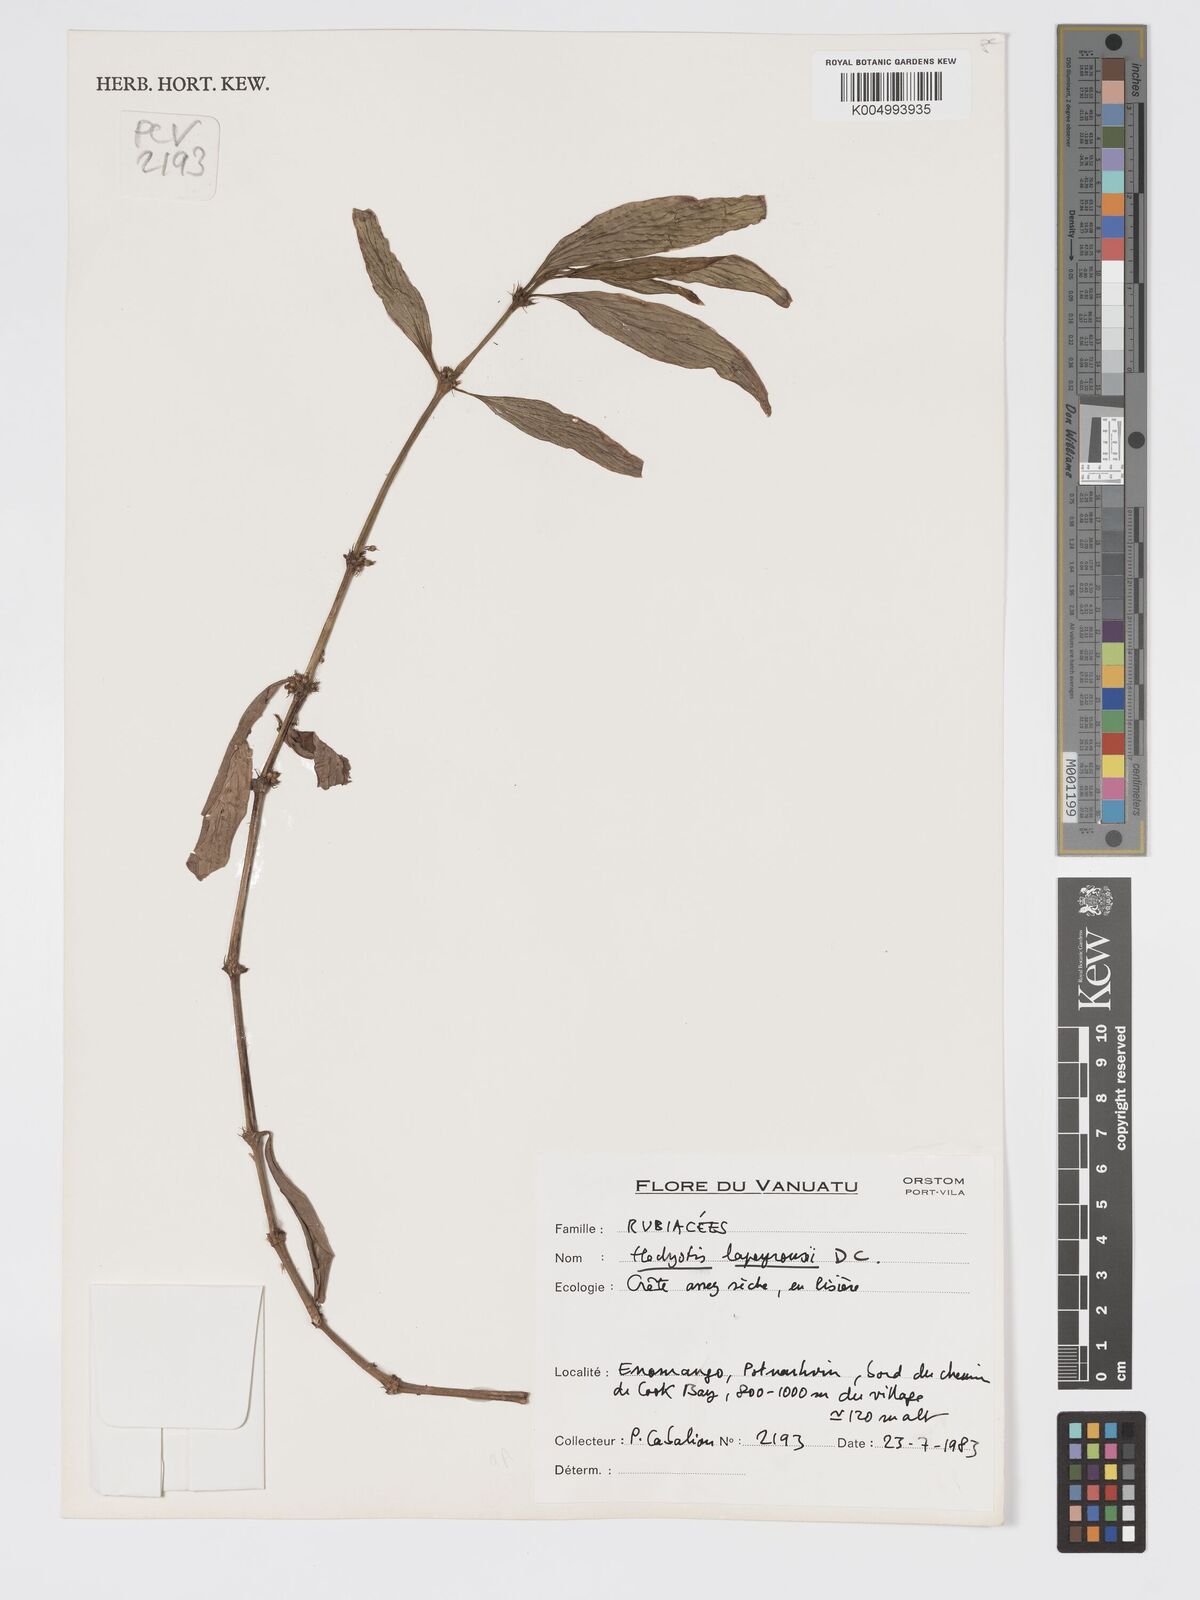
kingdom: Plantae
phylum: Tracheophyta
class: Magnoliopsida
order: Gentianales
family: Rubiaceae
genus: Exallage
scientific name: Exallage lapeyrousei
